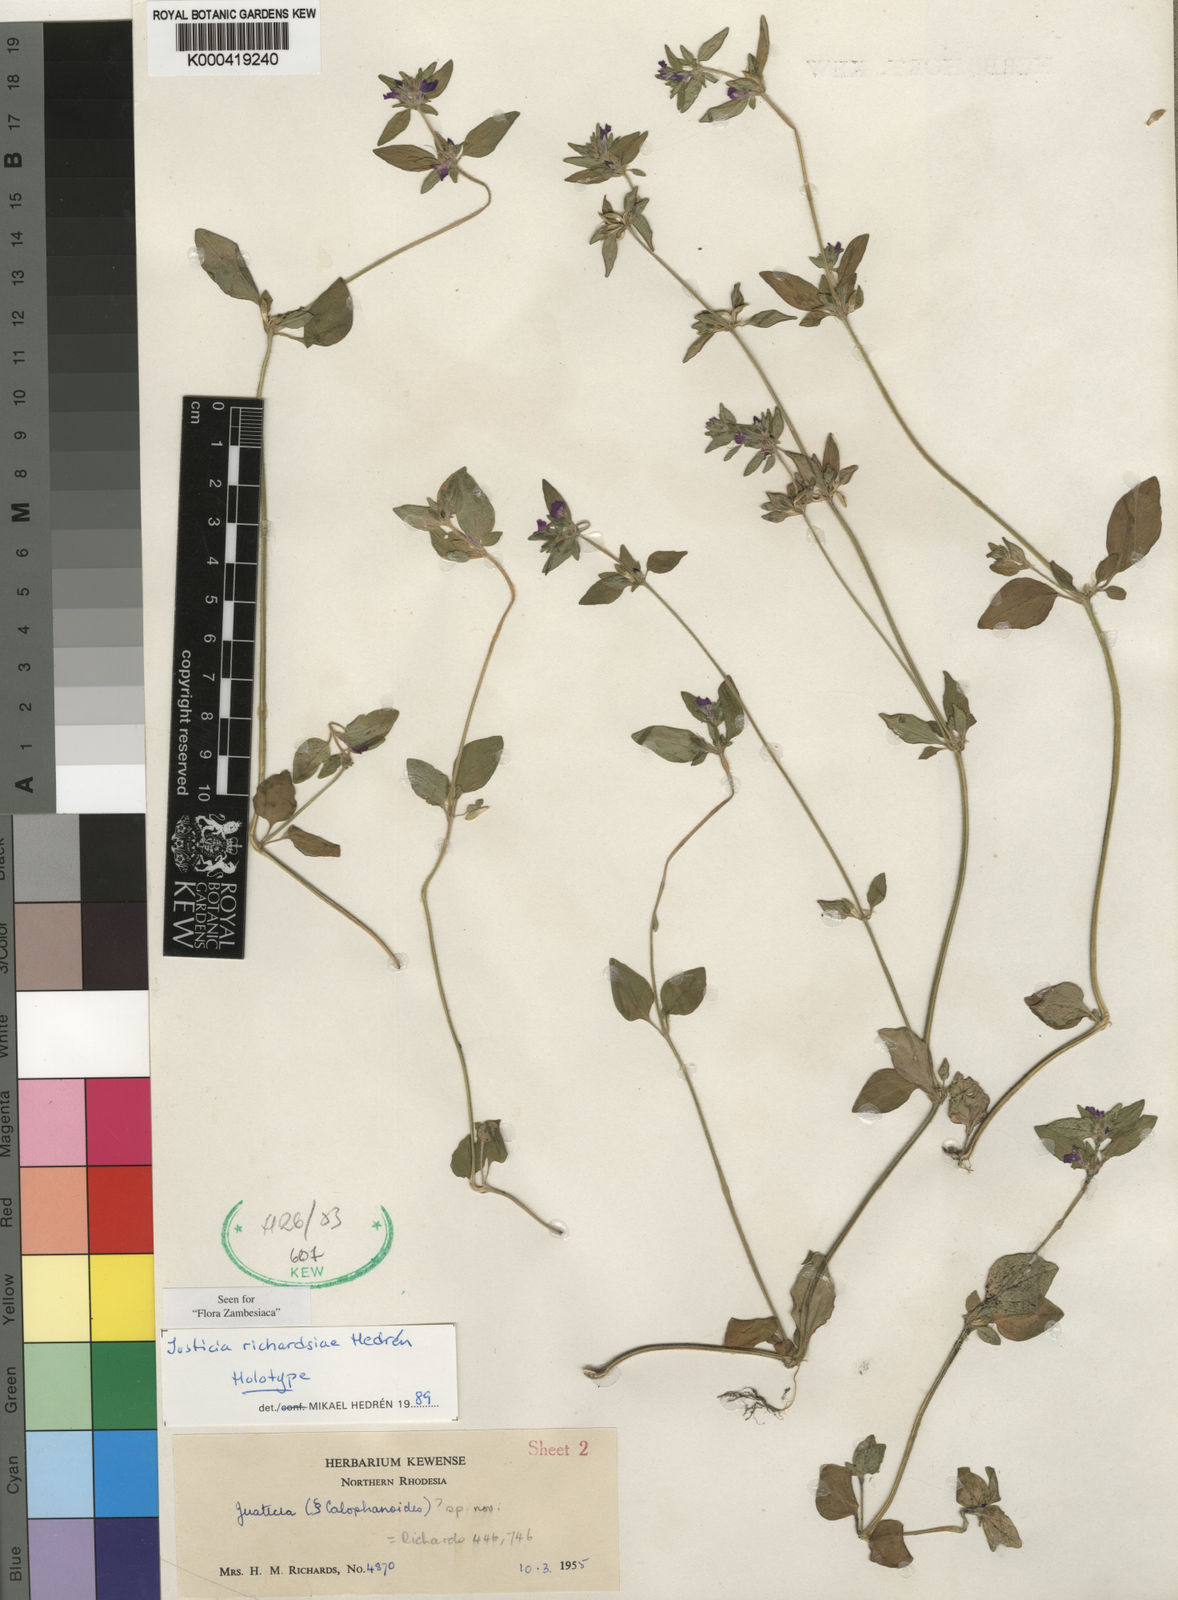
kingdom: Plantae
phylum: Tracheophyta
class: Magnoliopsida
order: Lamiales
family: Acanthaceae
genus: Justicia
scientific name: Justicia
